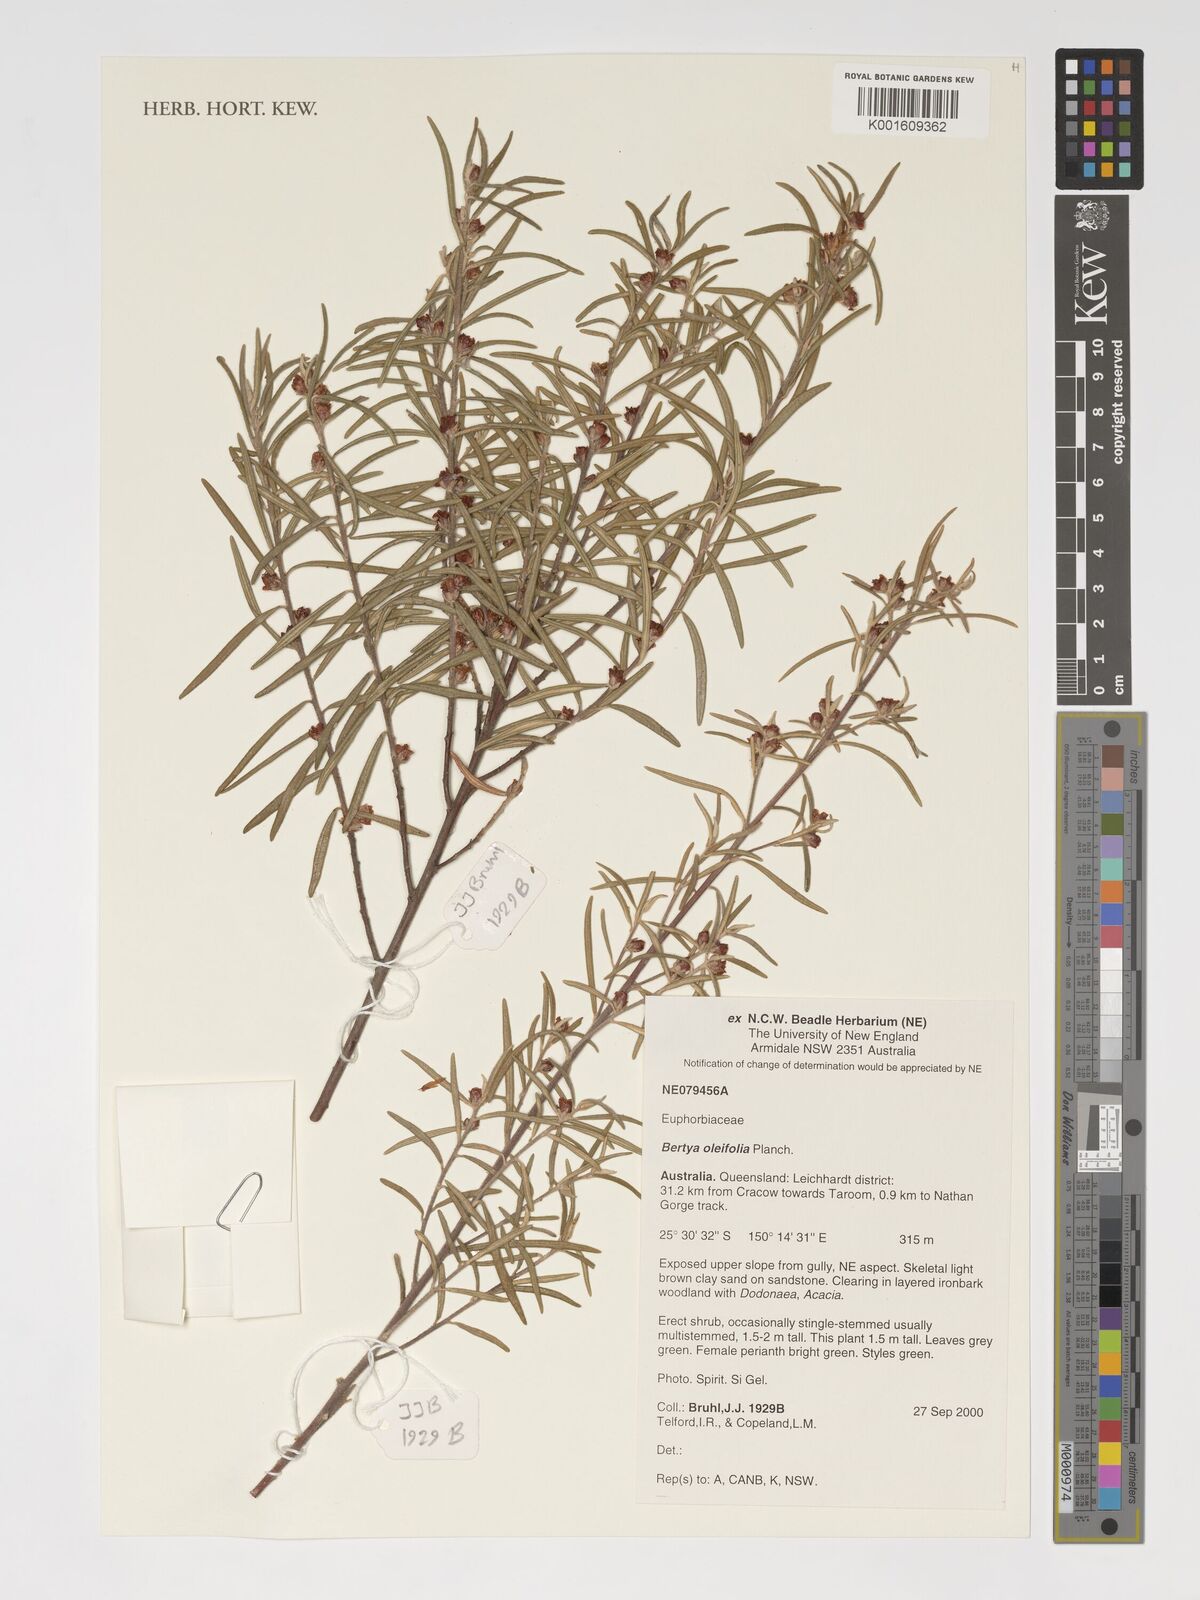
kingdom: Plantae
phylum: Tracheophyta
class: Magnoliopsida
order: Malpighiales
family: Euphorbiaceae
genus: Bertya
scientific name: Bertya oleifolia
